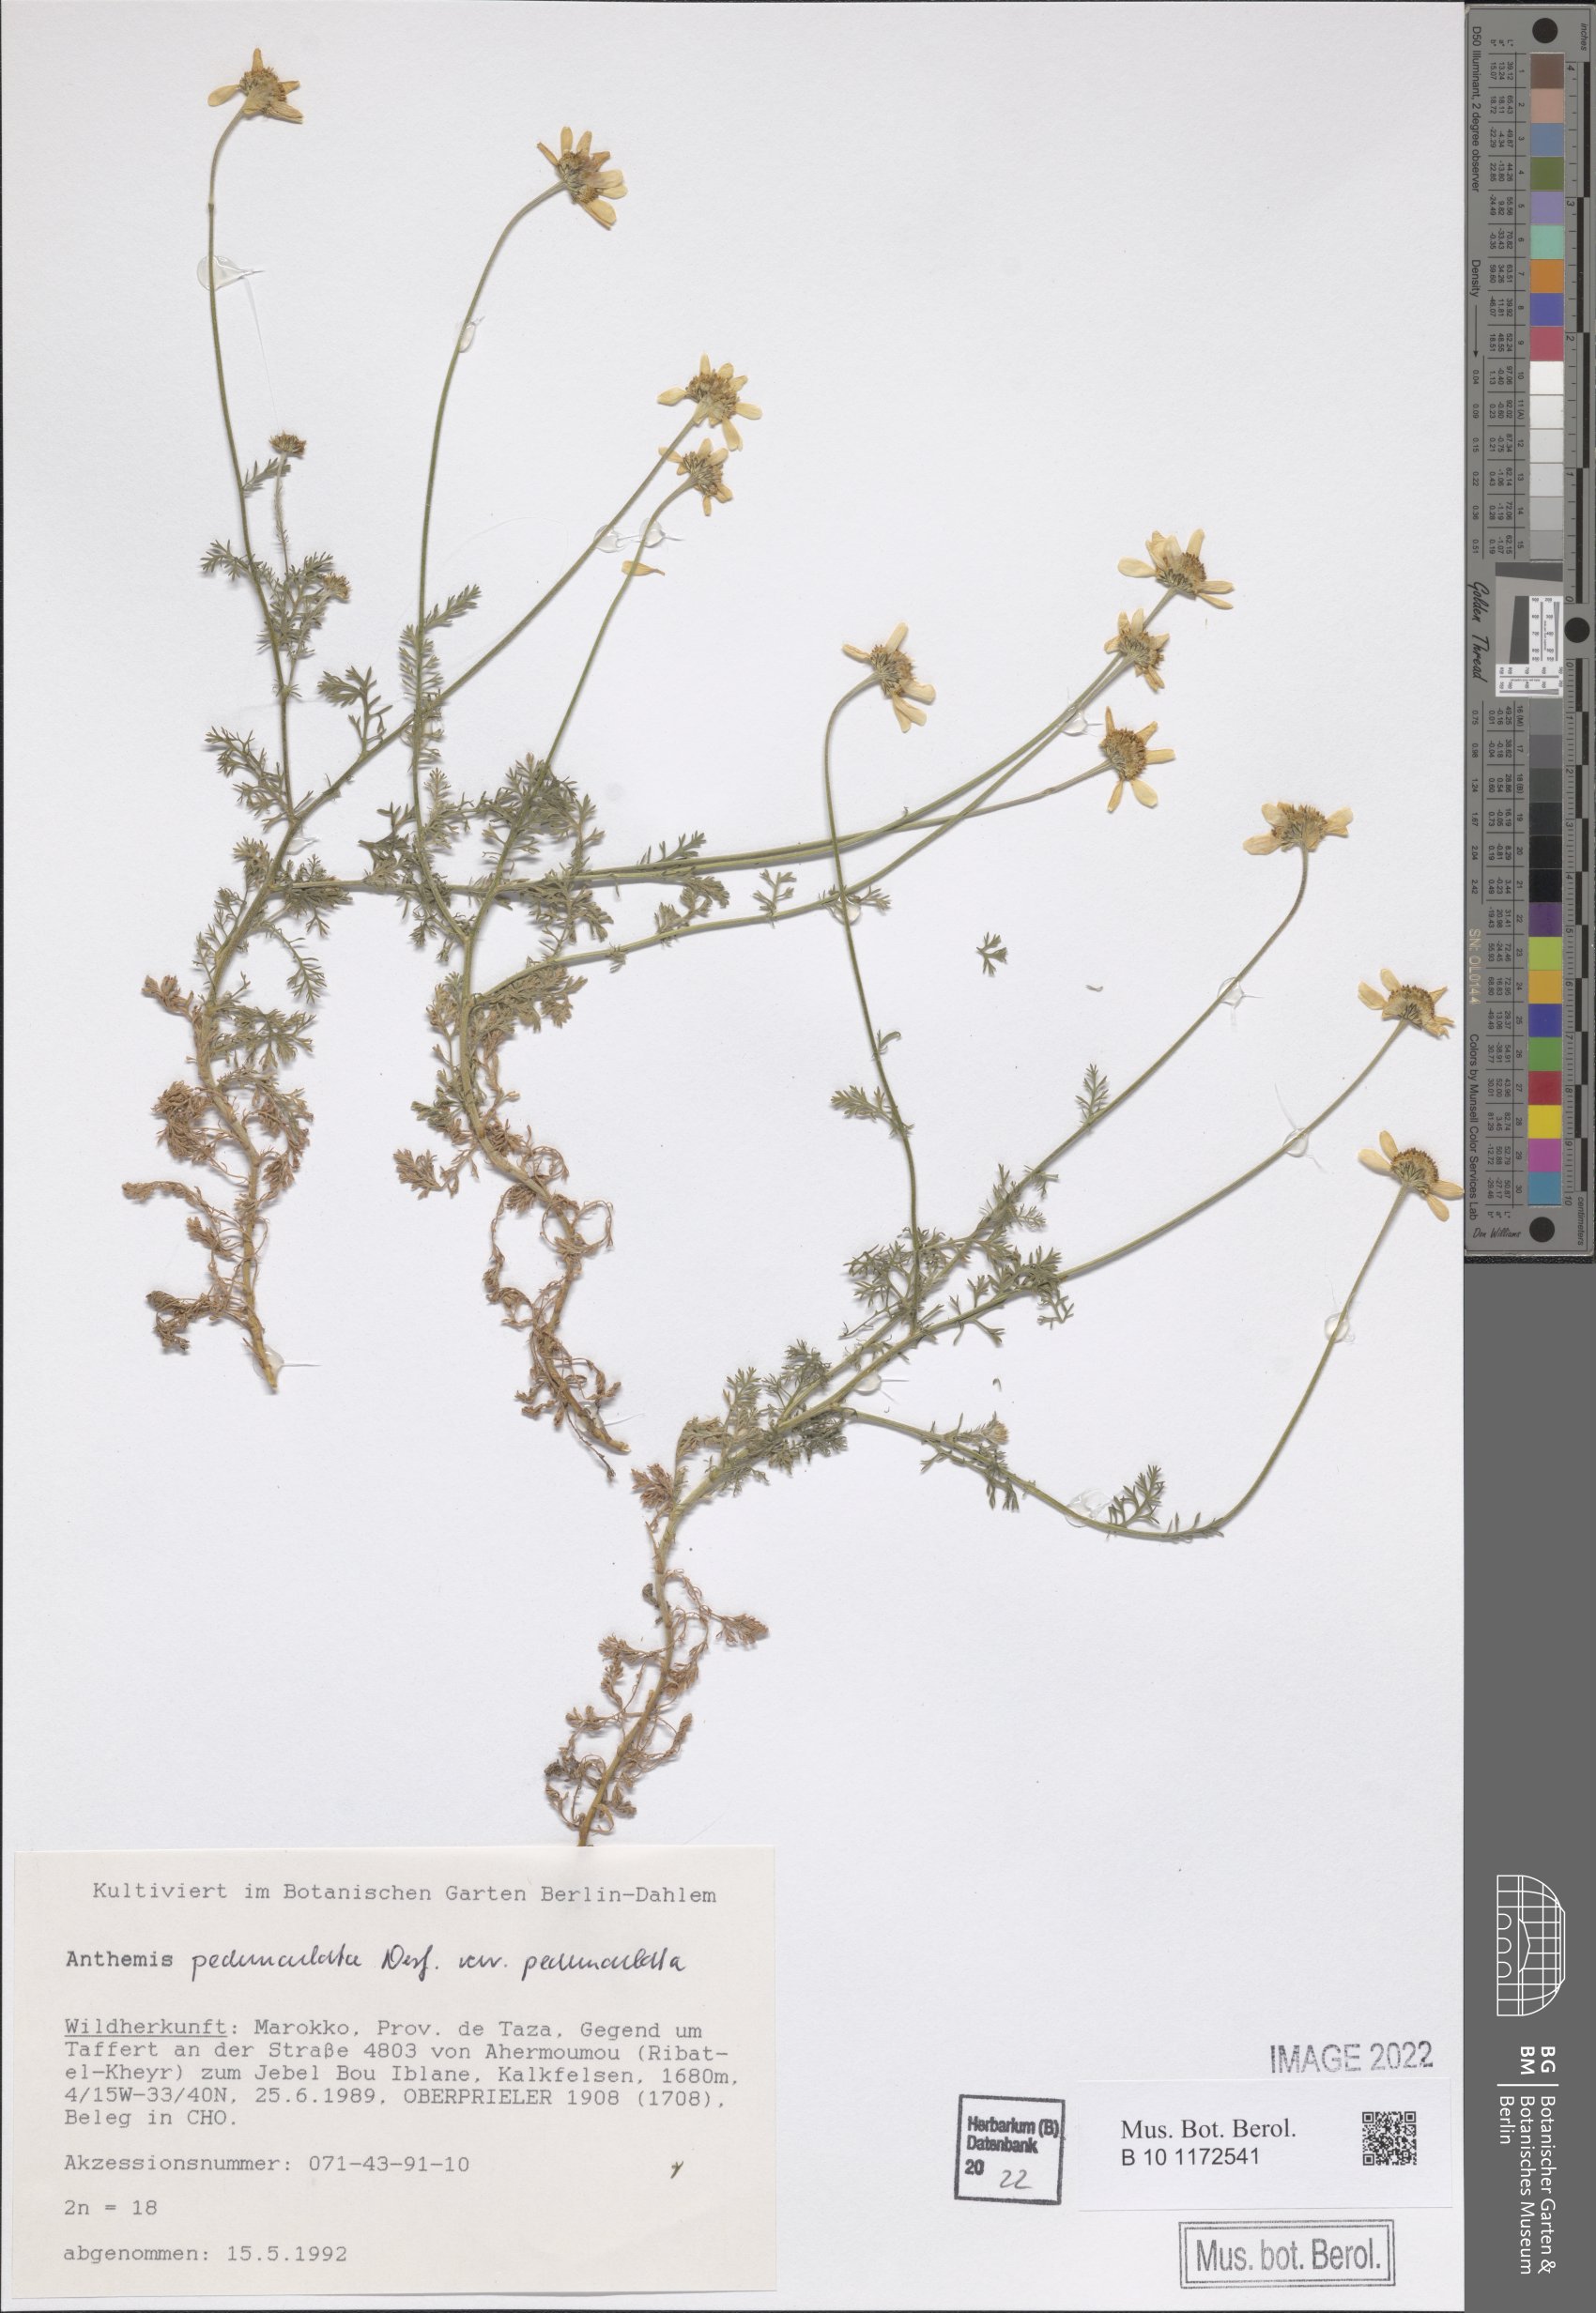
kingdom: Plantae
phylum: Tracheophyta
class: Magnoliopsida
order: Asterales
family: Asteraceae
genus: Anthemis
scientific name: Anthemis pedunculata
